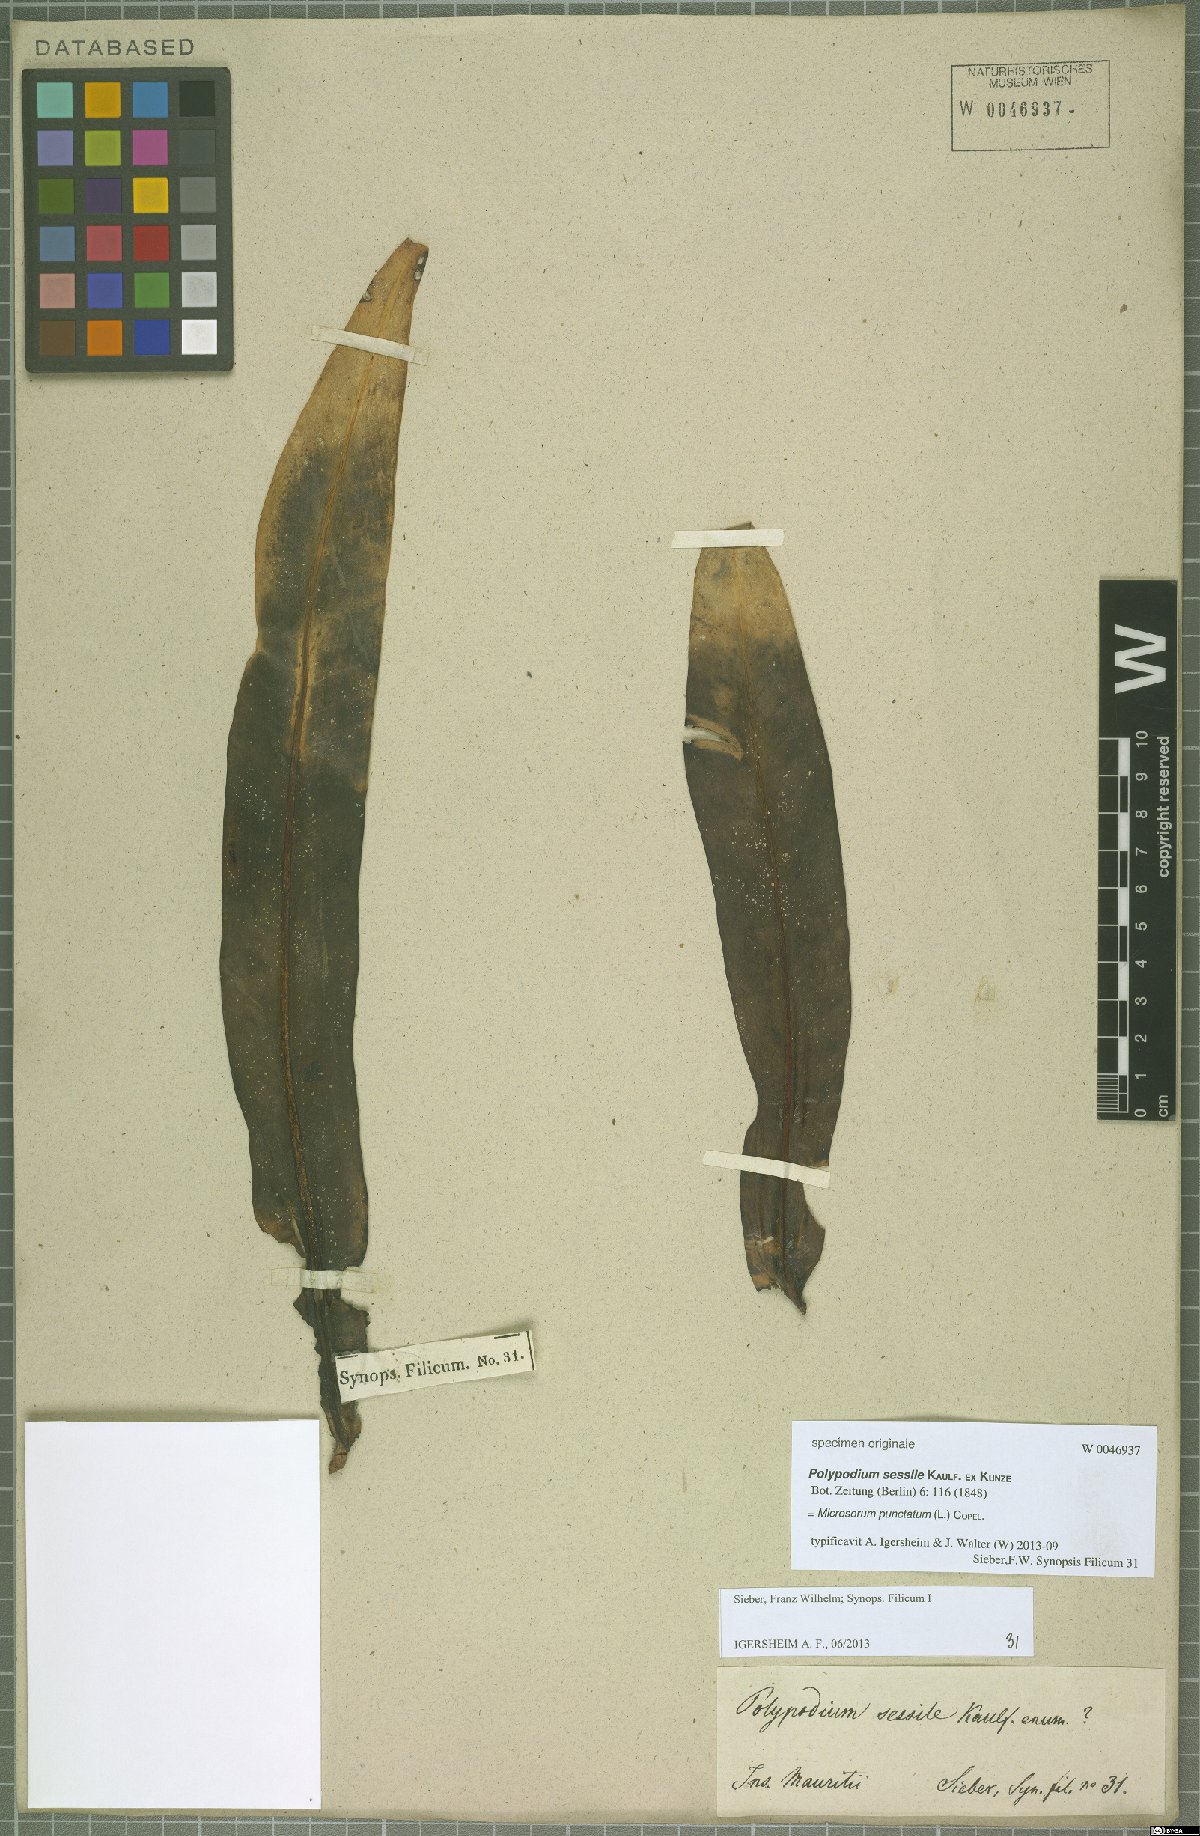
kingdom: Plantae
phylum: Tracheophyta
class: Polypodiopsida
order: Polypodiales
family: Polypodiaceae
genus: Microsorum
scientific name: Microsorum punctatum
